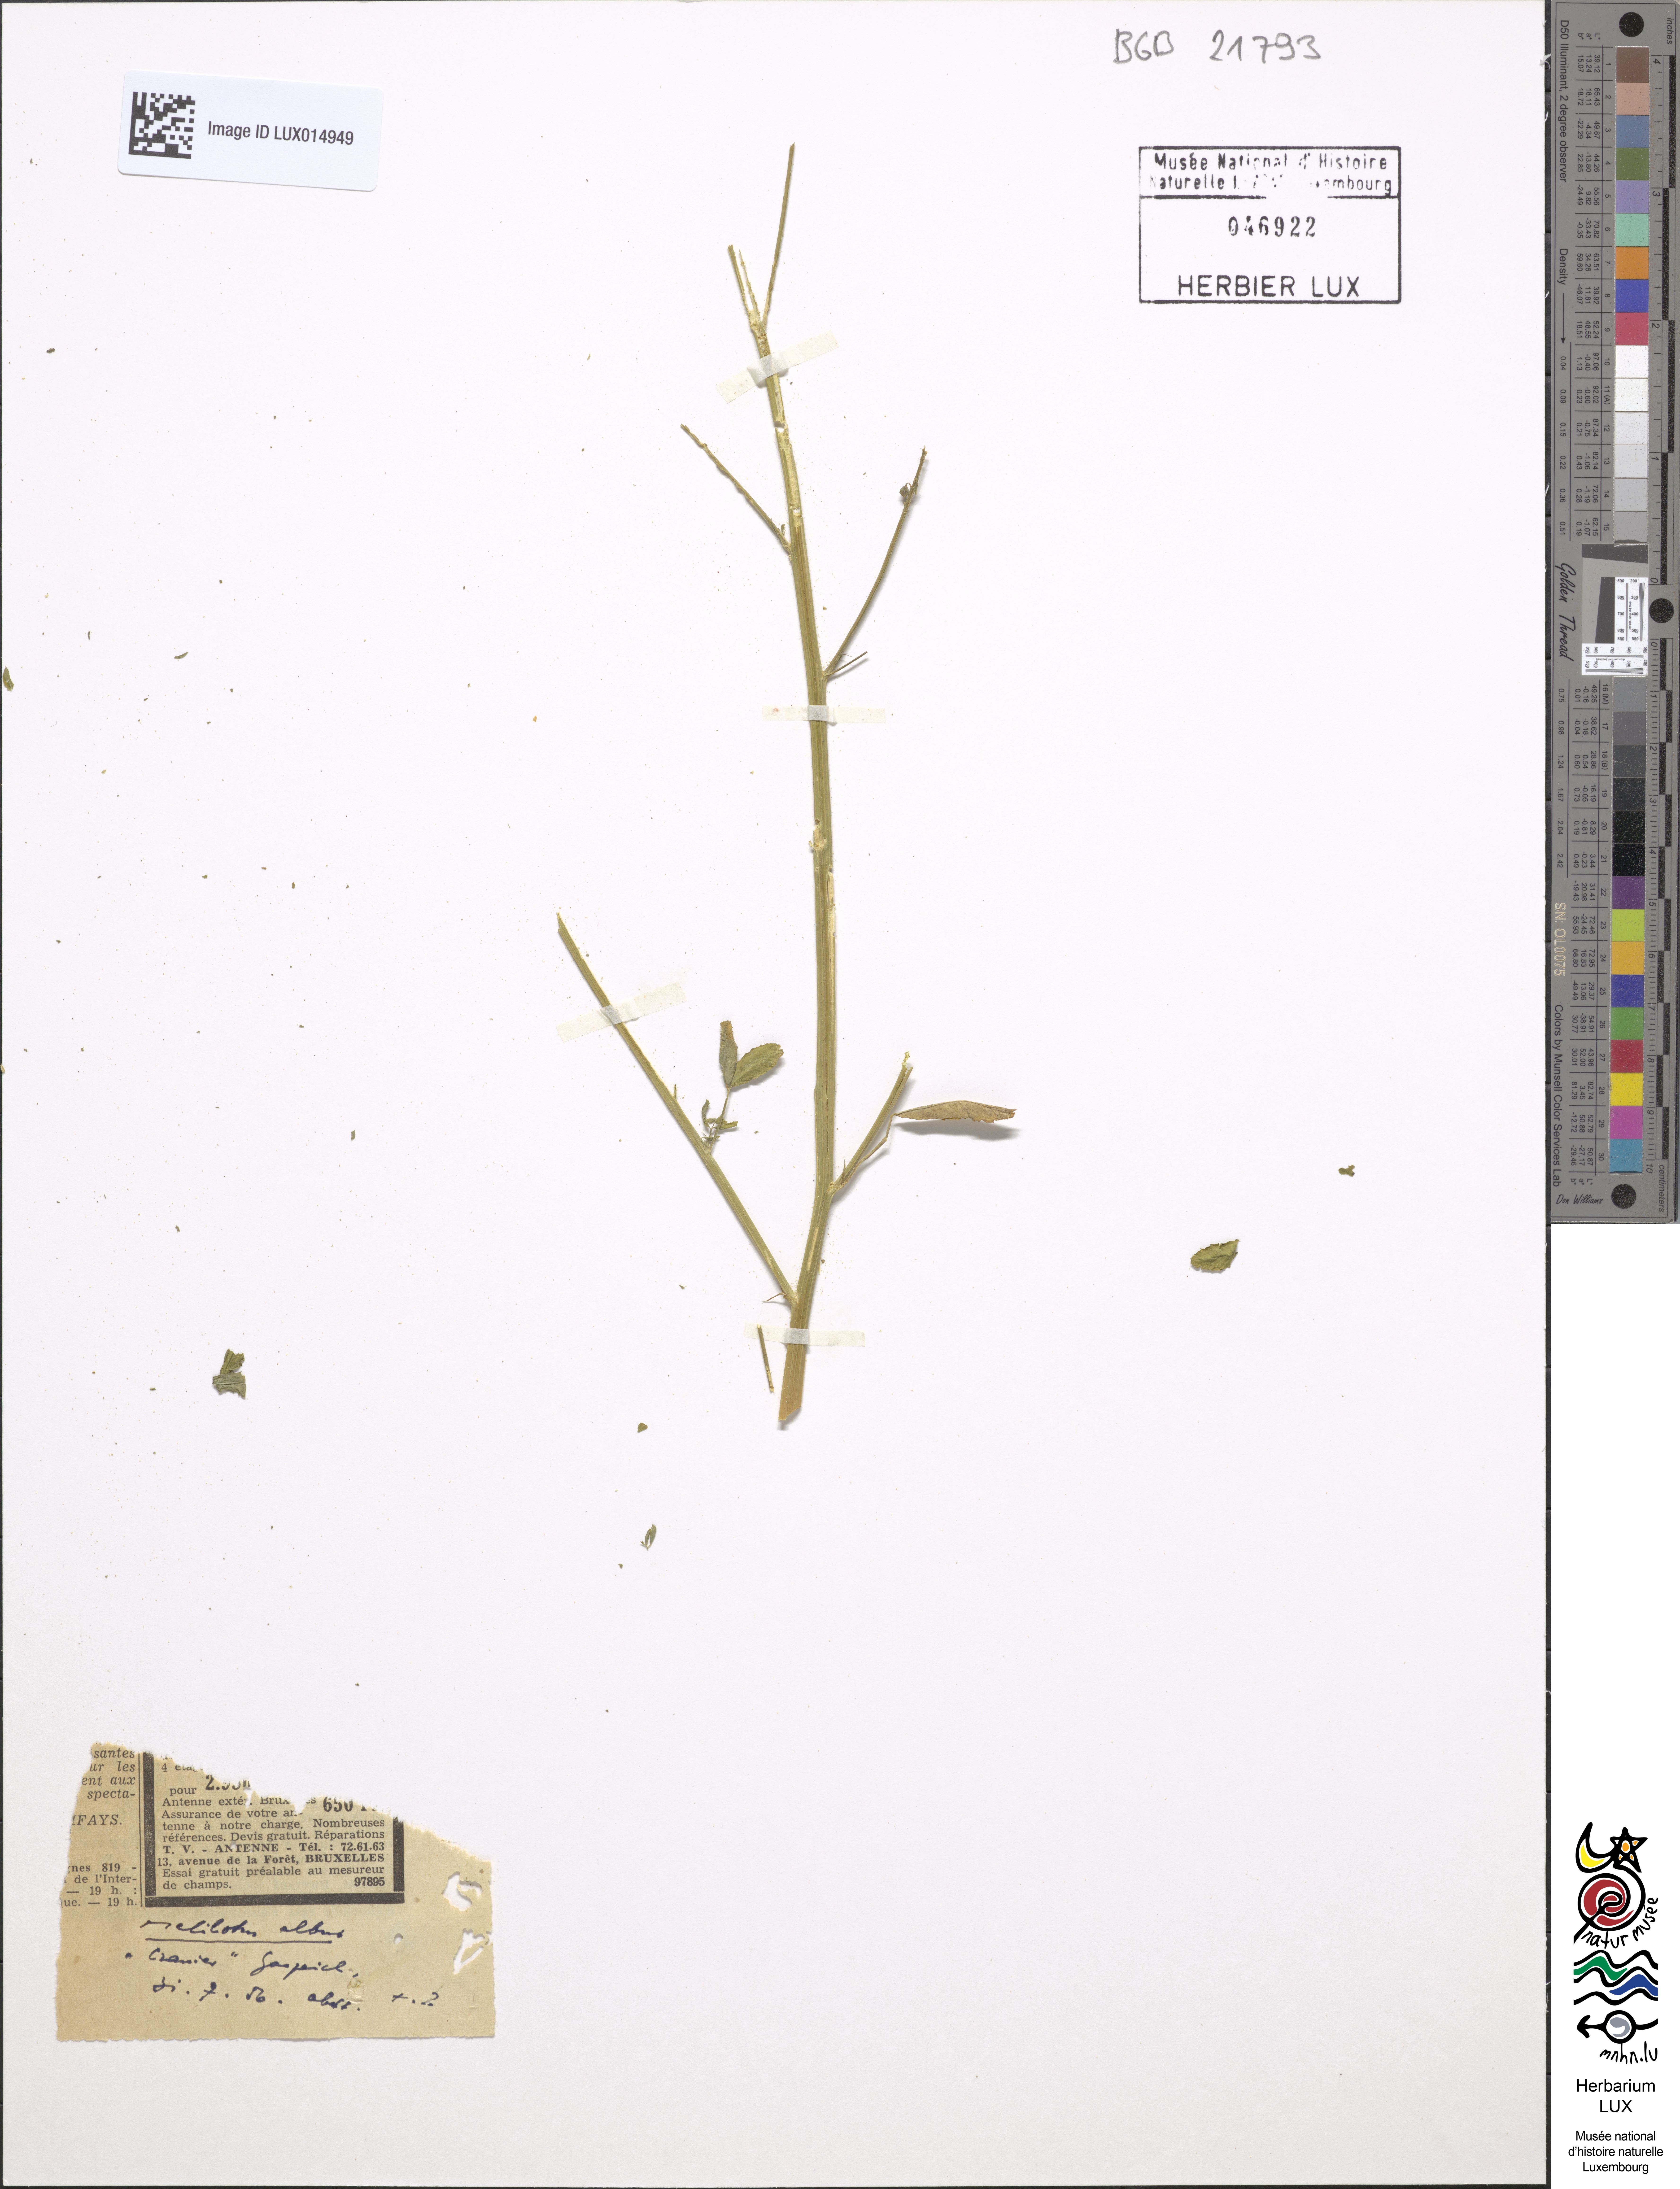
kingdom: Plantae
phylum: Tracheophyta
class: Magnoliopsida
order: Fabales
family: Fabaceae
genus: Melilotus
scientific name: Melilotus albus
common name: White melilot
